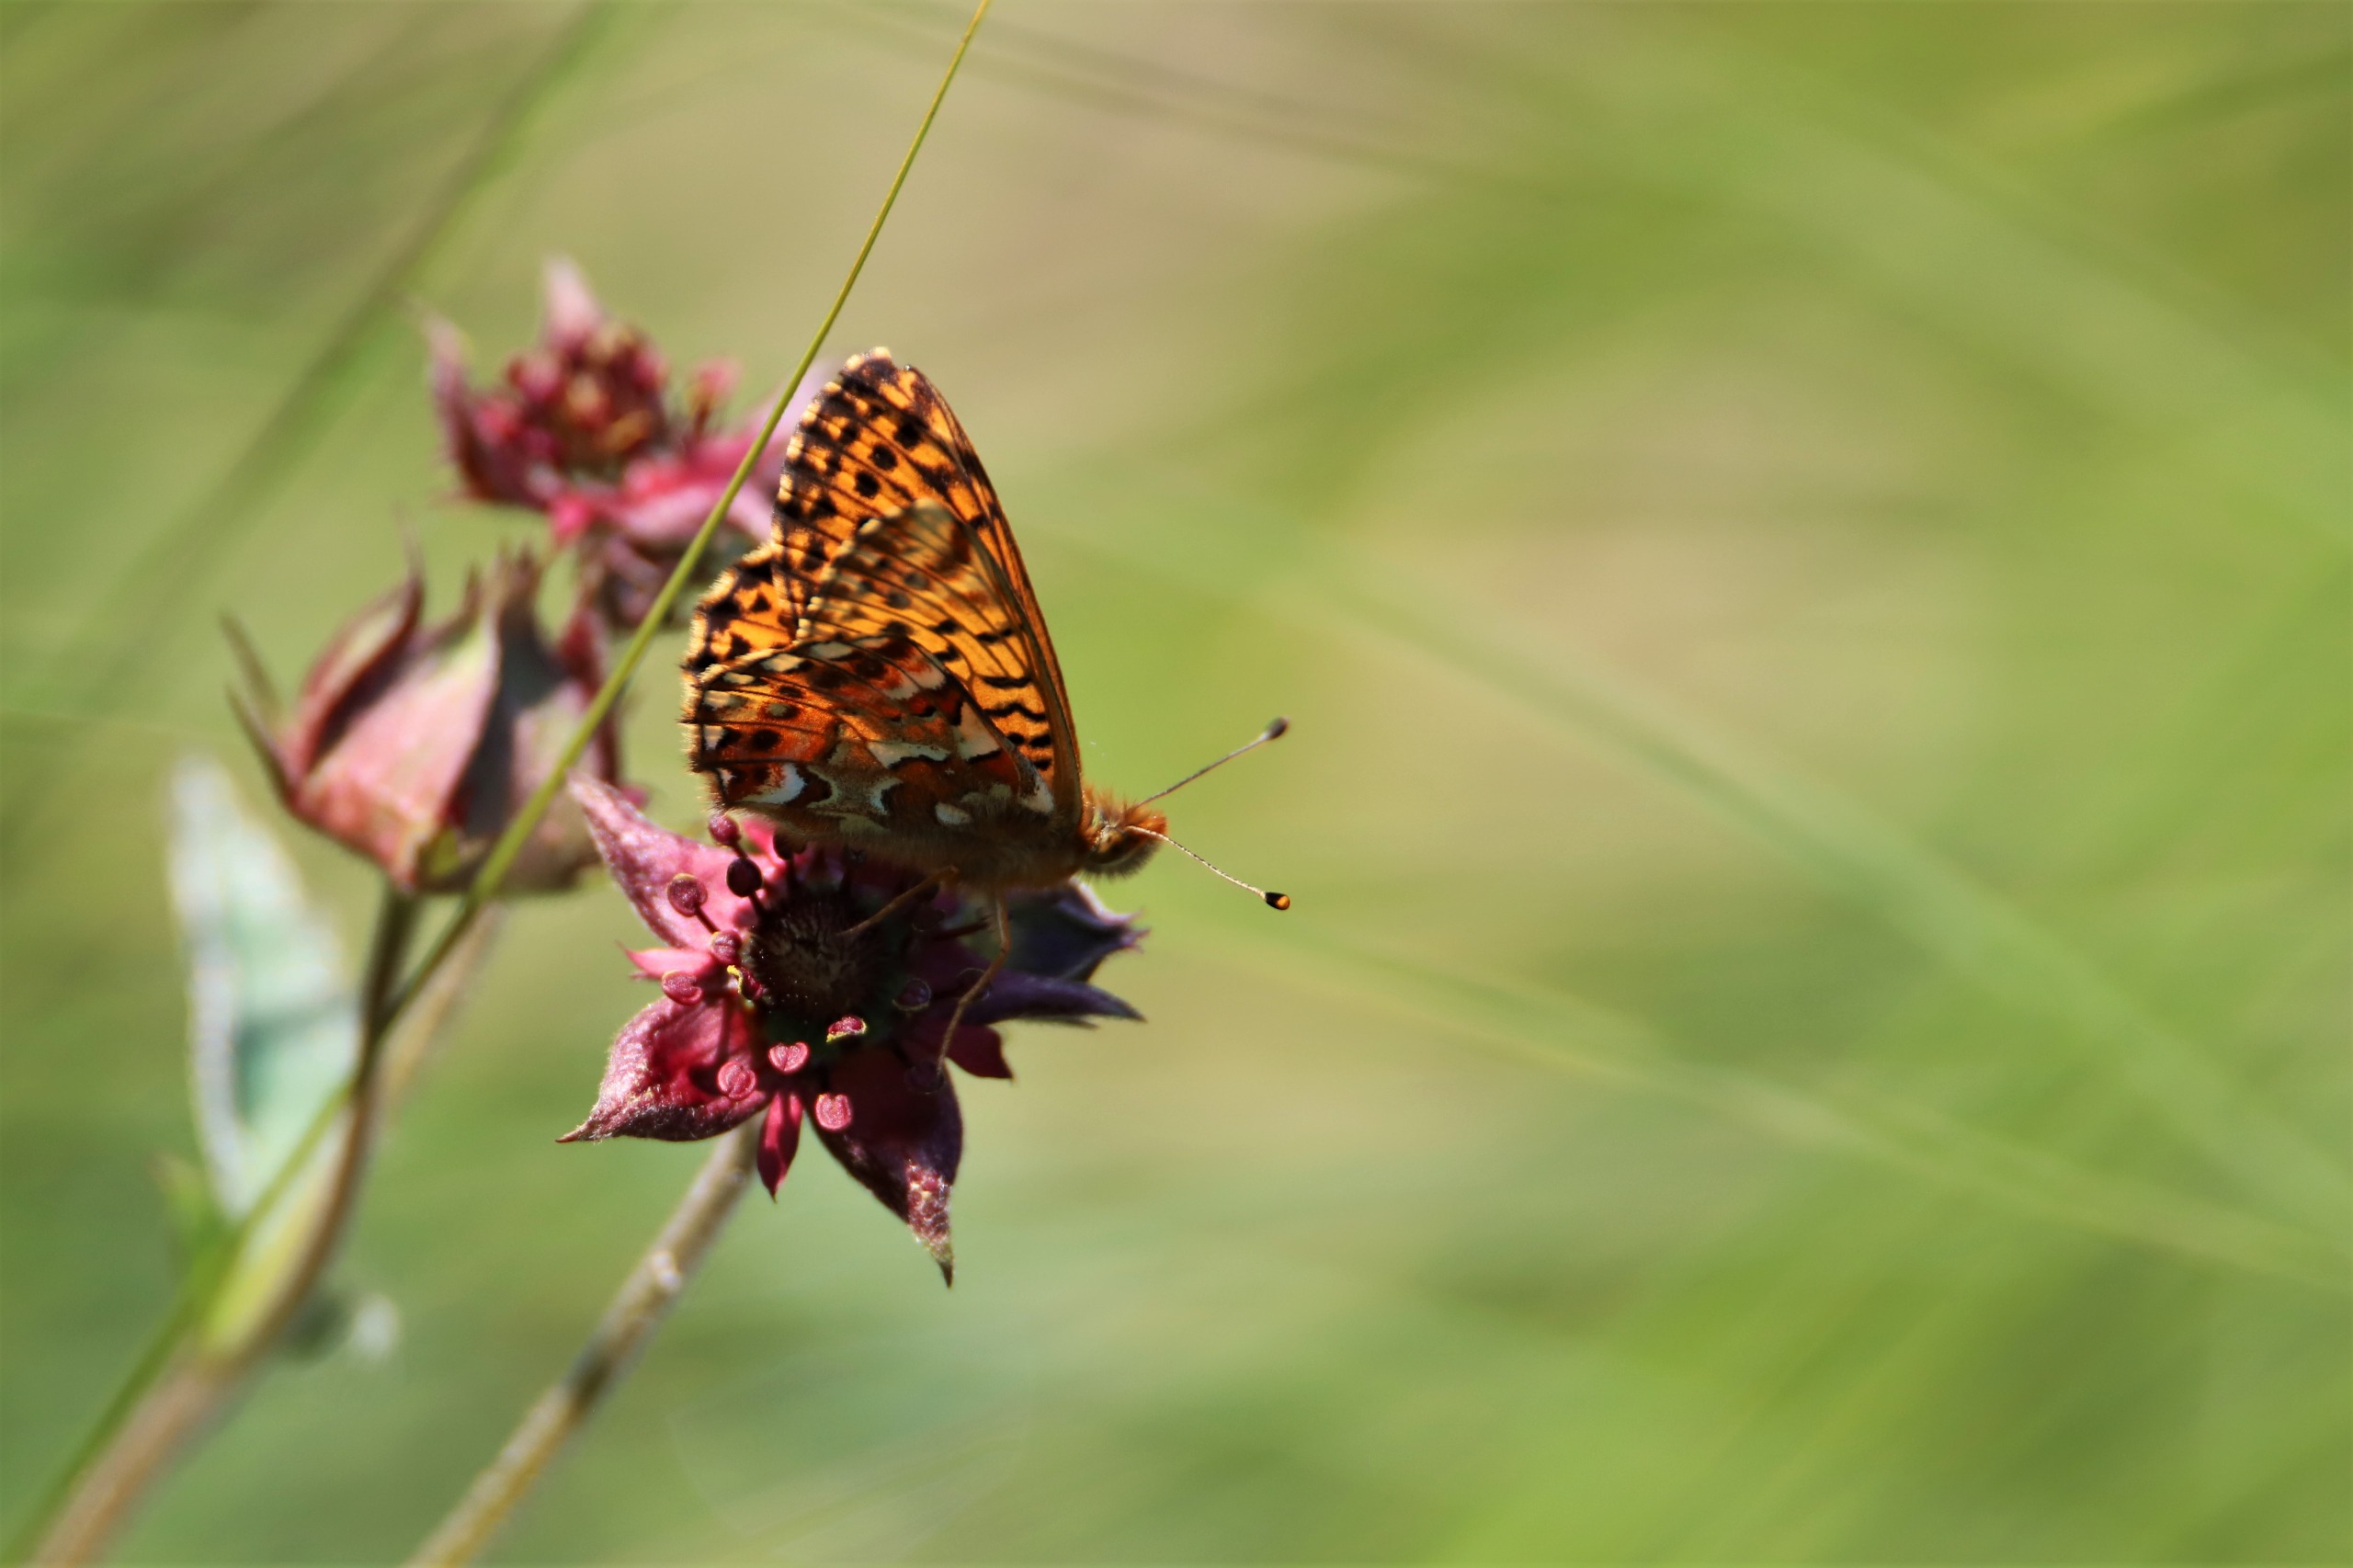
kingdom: Animalia
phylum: Arthropoda
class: Insecta
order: Lepidoptera
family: Nymphalidae
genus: Boloria
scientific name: Boloria aquilonaris
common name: Moseperlemorsommerfugl
